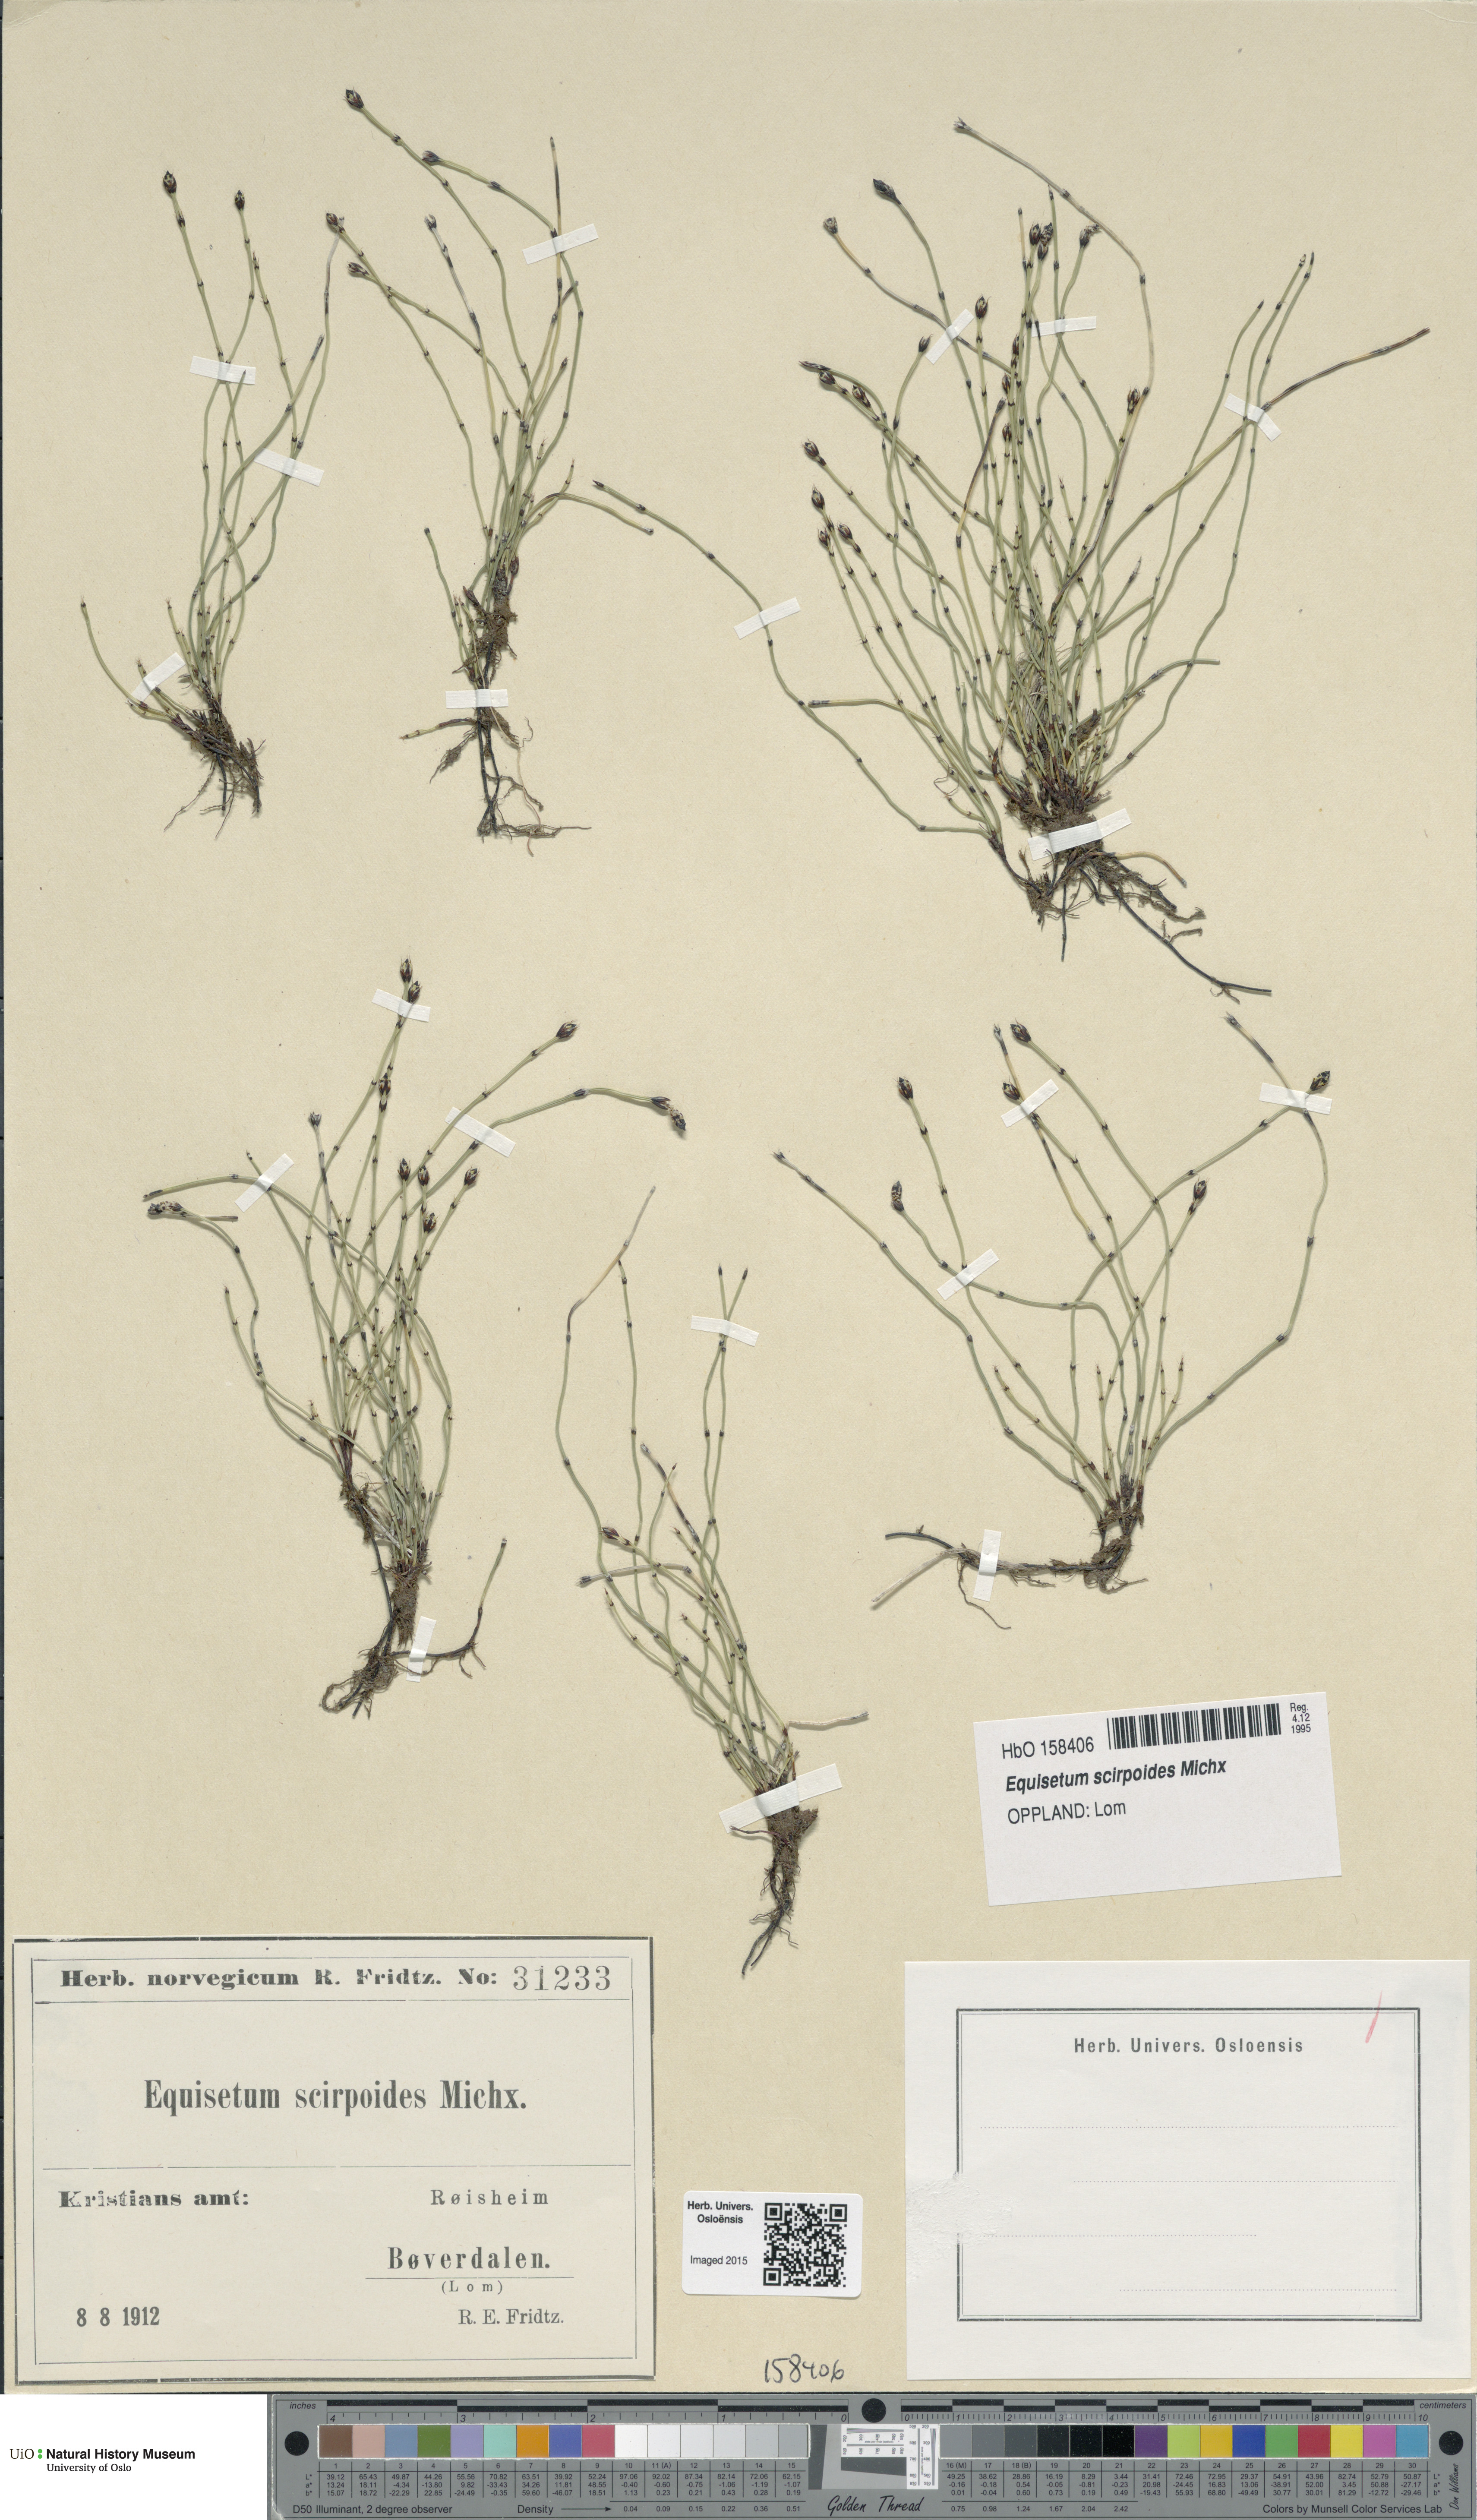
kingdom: Plantae
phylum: Tracheophyta
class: Polypodiopsida
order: Equisetales
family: Equisetaceae
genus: Equisetum
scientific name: Equisetum scirpoides
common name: Delicate horsetail
